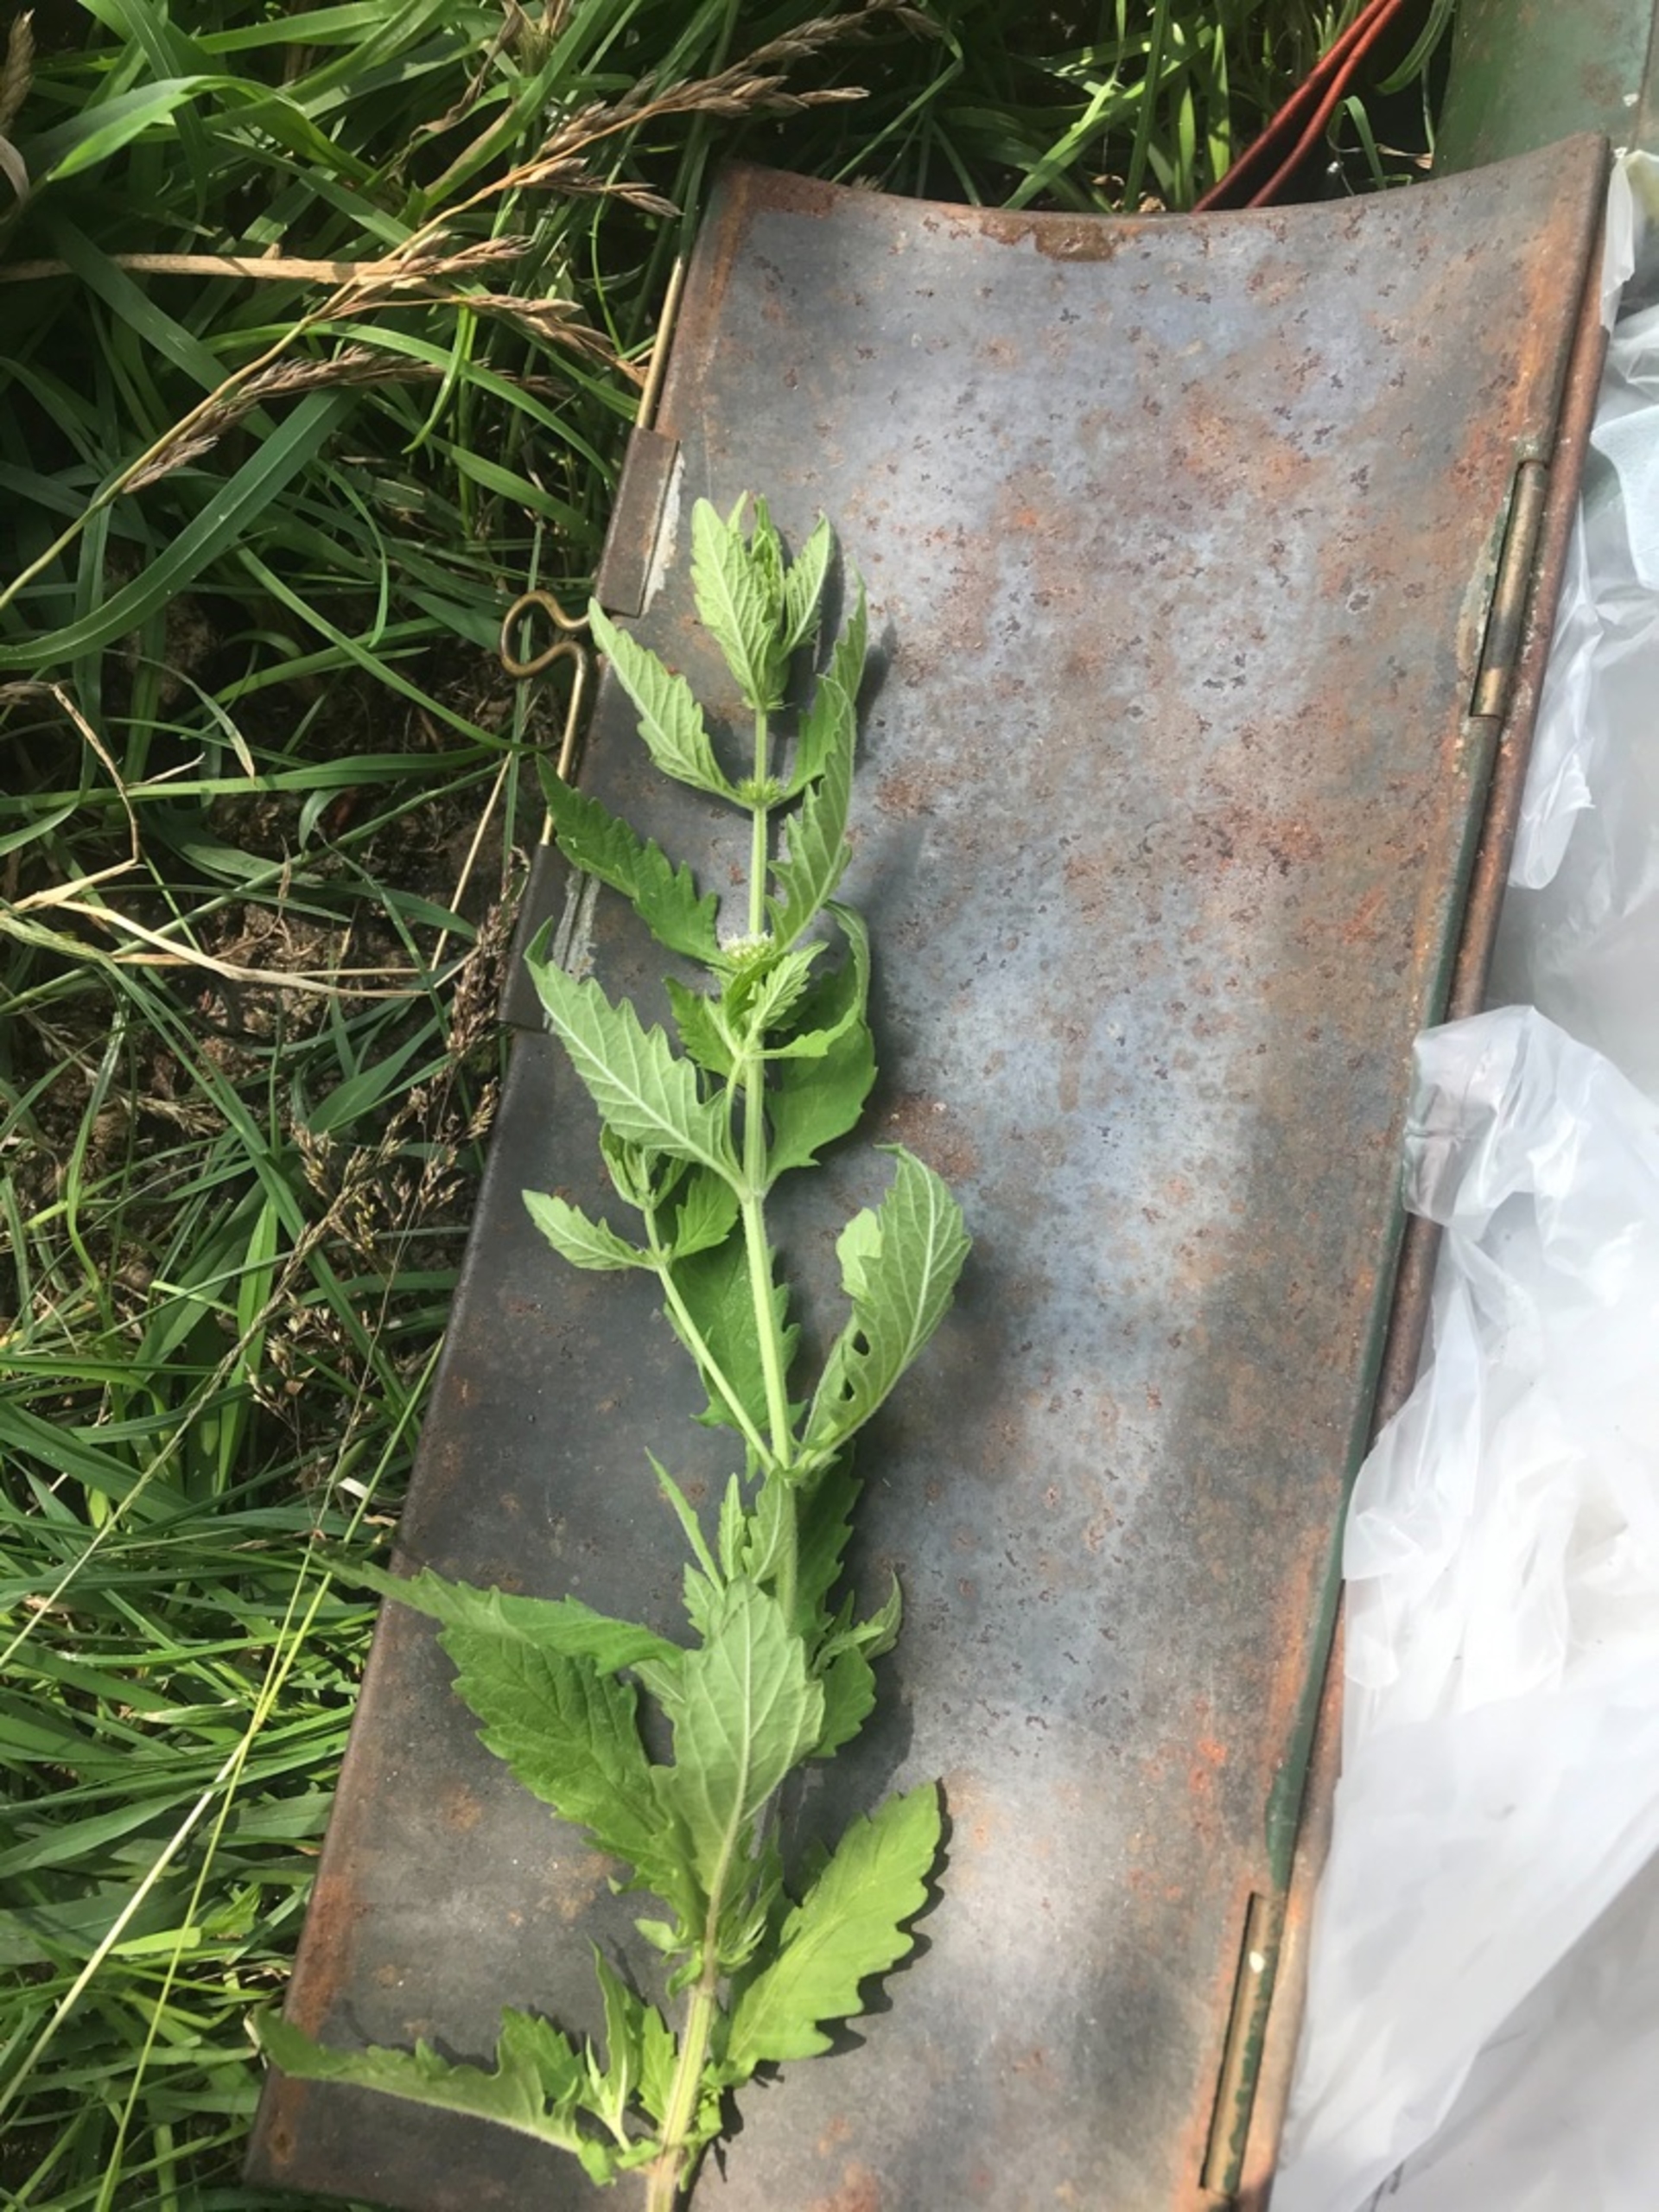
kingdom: Plantae
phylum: Tracheophyta
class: Magnoliopsida
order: Lamiales
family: Lamiaceae
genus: Lycopus
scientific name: Lycopus europaeus
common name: Sværtevæld
